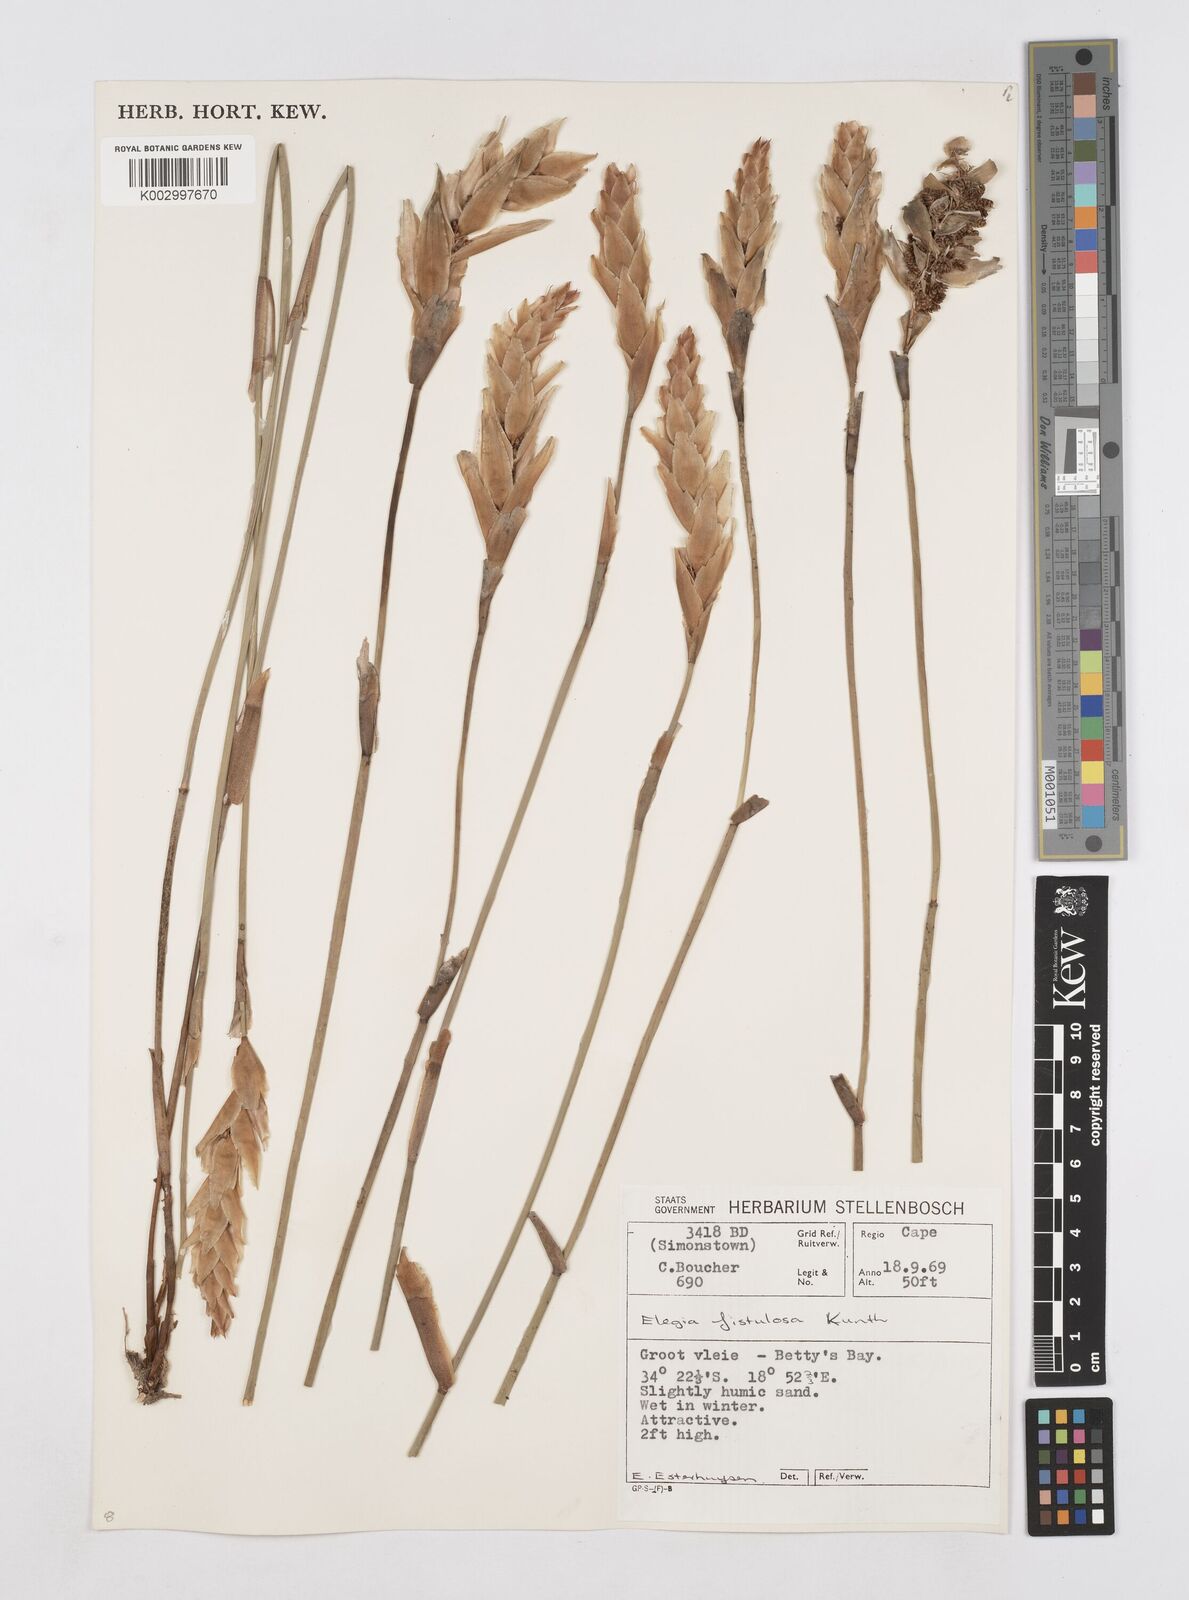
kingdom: Plantae
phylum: Tracheophyta
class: Liliopsida
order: Poales
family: Restionaceae
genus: Elegia
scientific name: Elegia fistulosa
